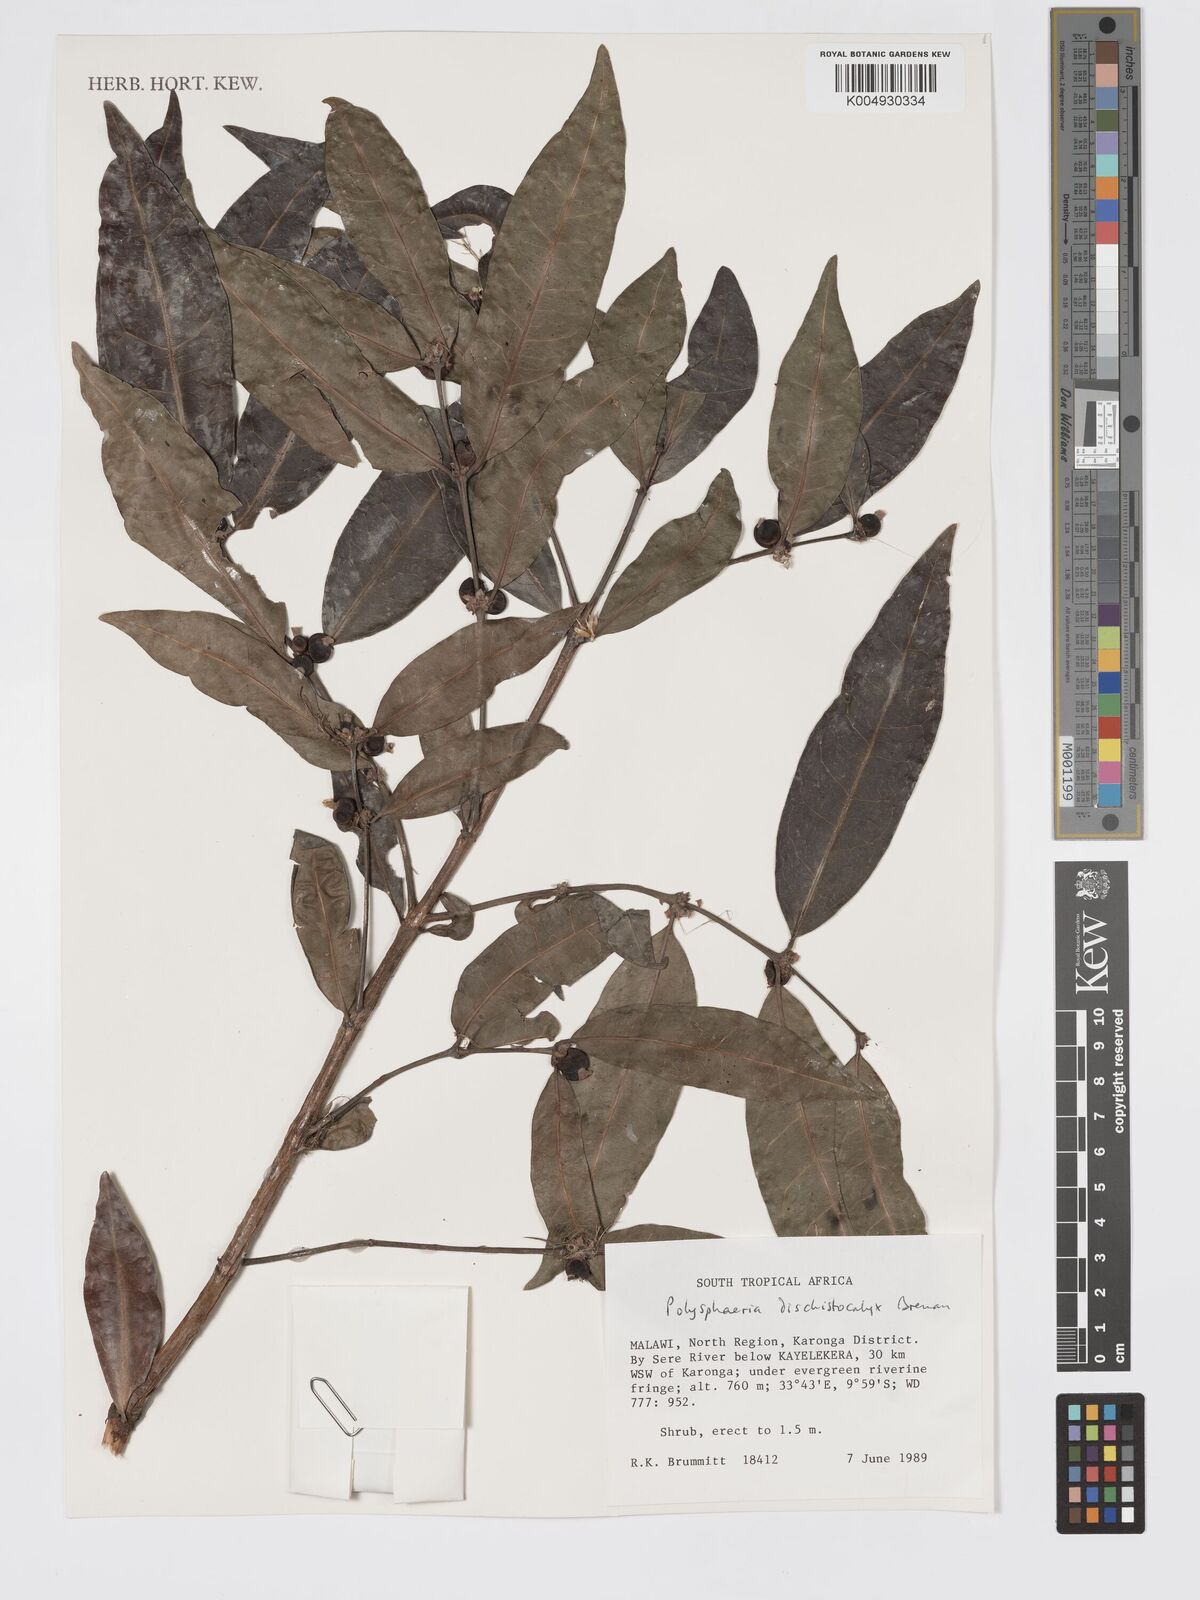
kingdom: Plantae
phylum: Tracheophyta
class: Magnoliopsida
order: Gentianales
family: Rubiaceae
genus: Polysphaeria
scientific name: Polysphaeria dischistocalyx
